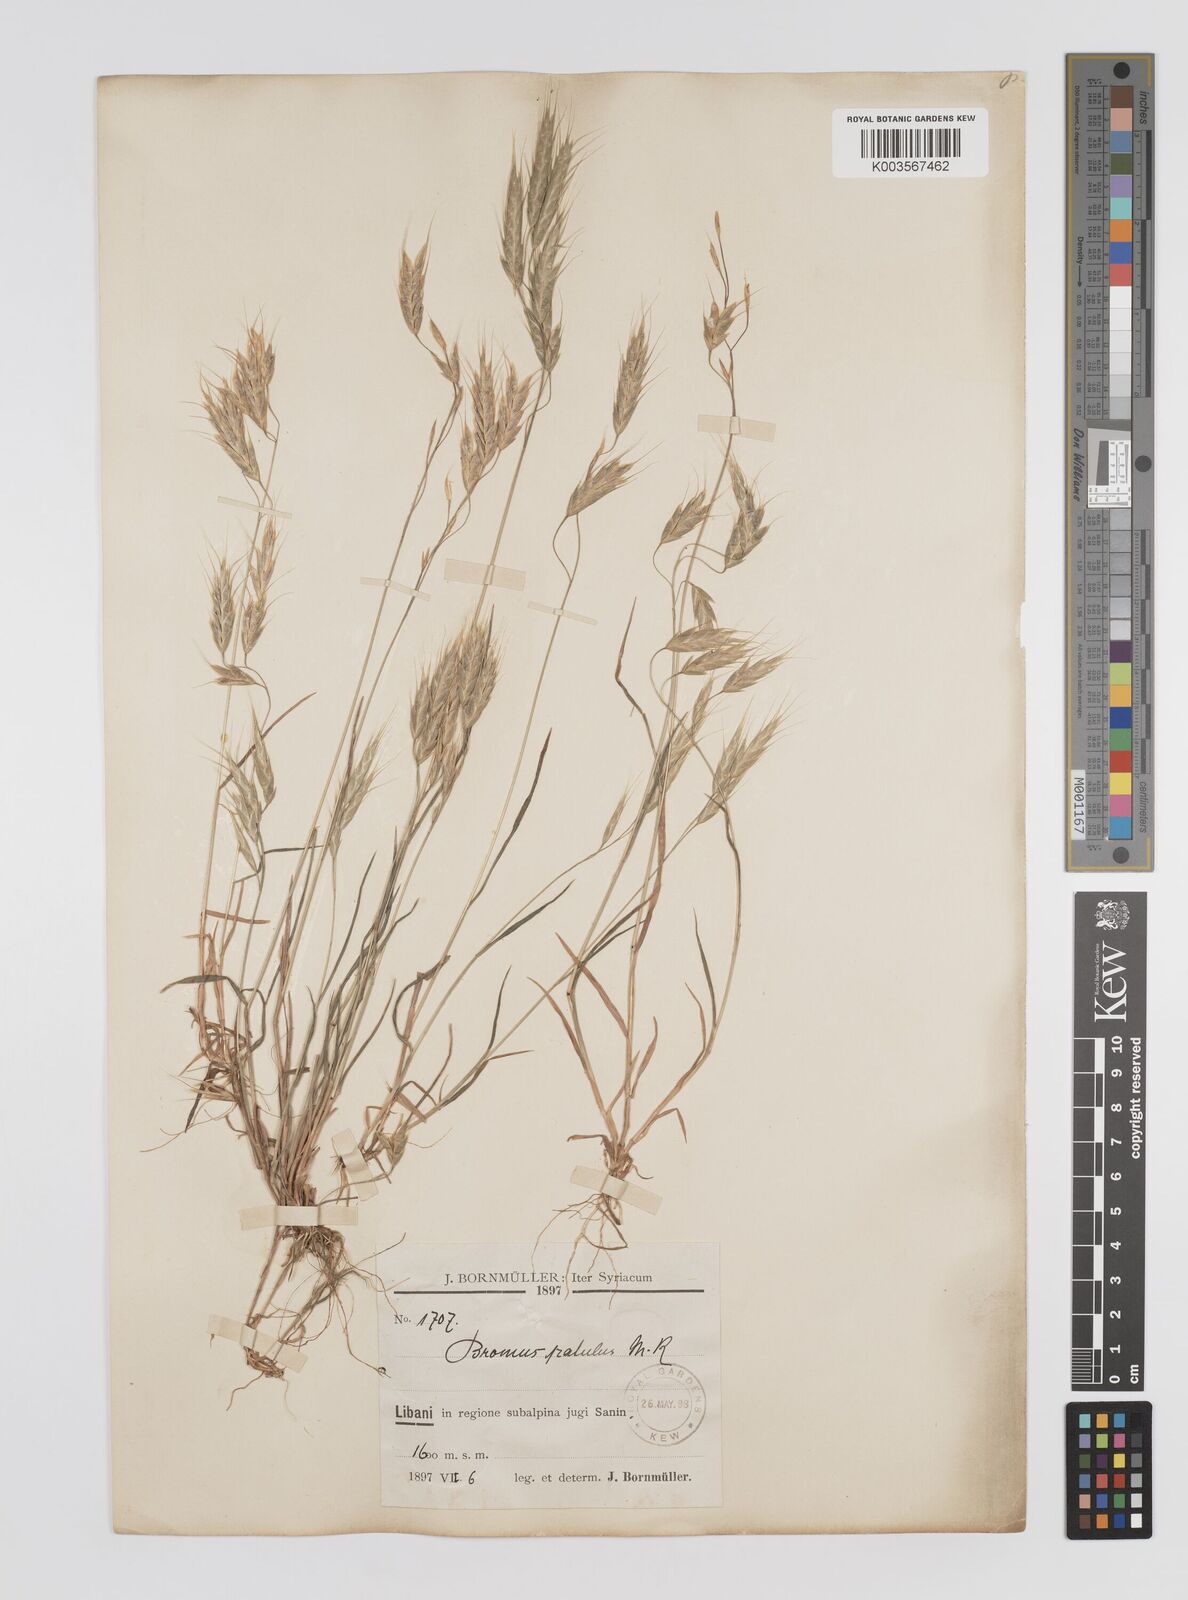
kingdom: Plantae
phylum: Tracheophyta
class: Liliopsida
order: Poales
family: Poaceae
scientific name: Poaceae
